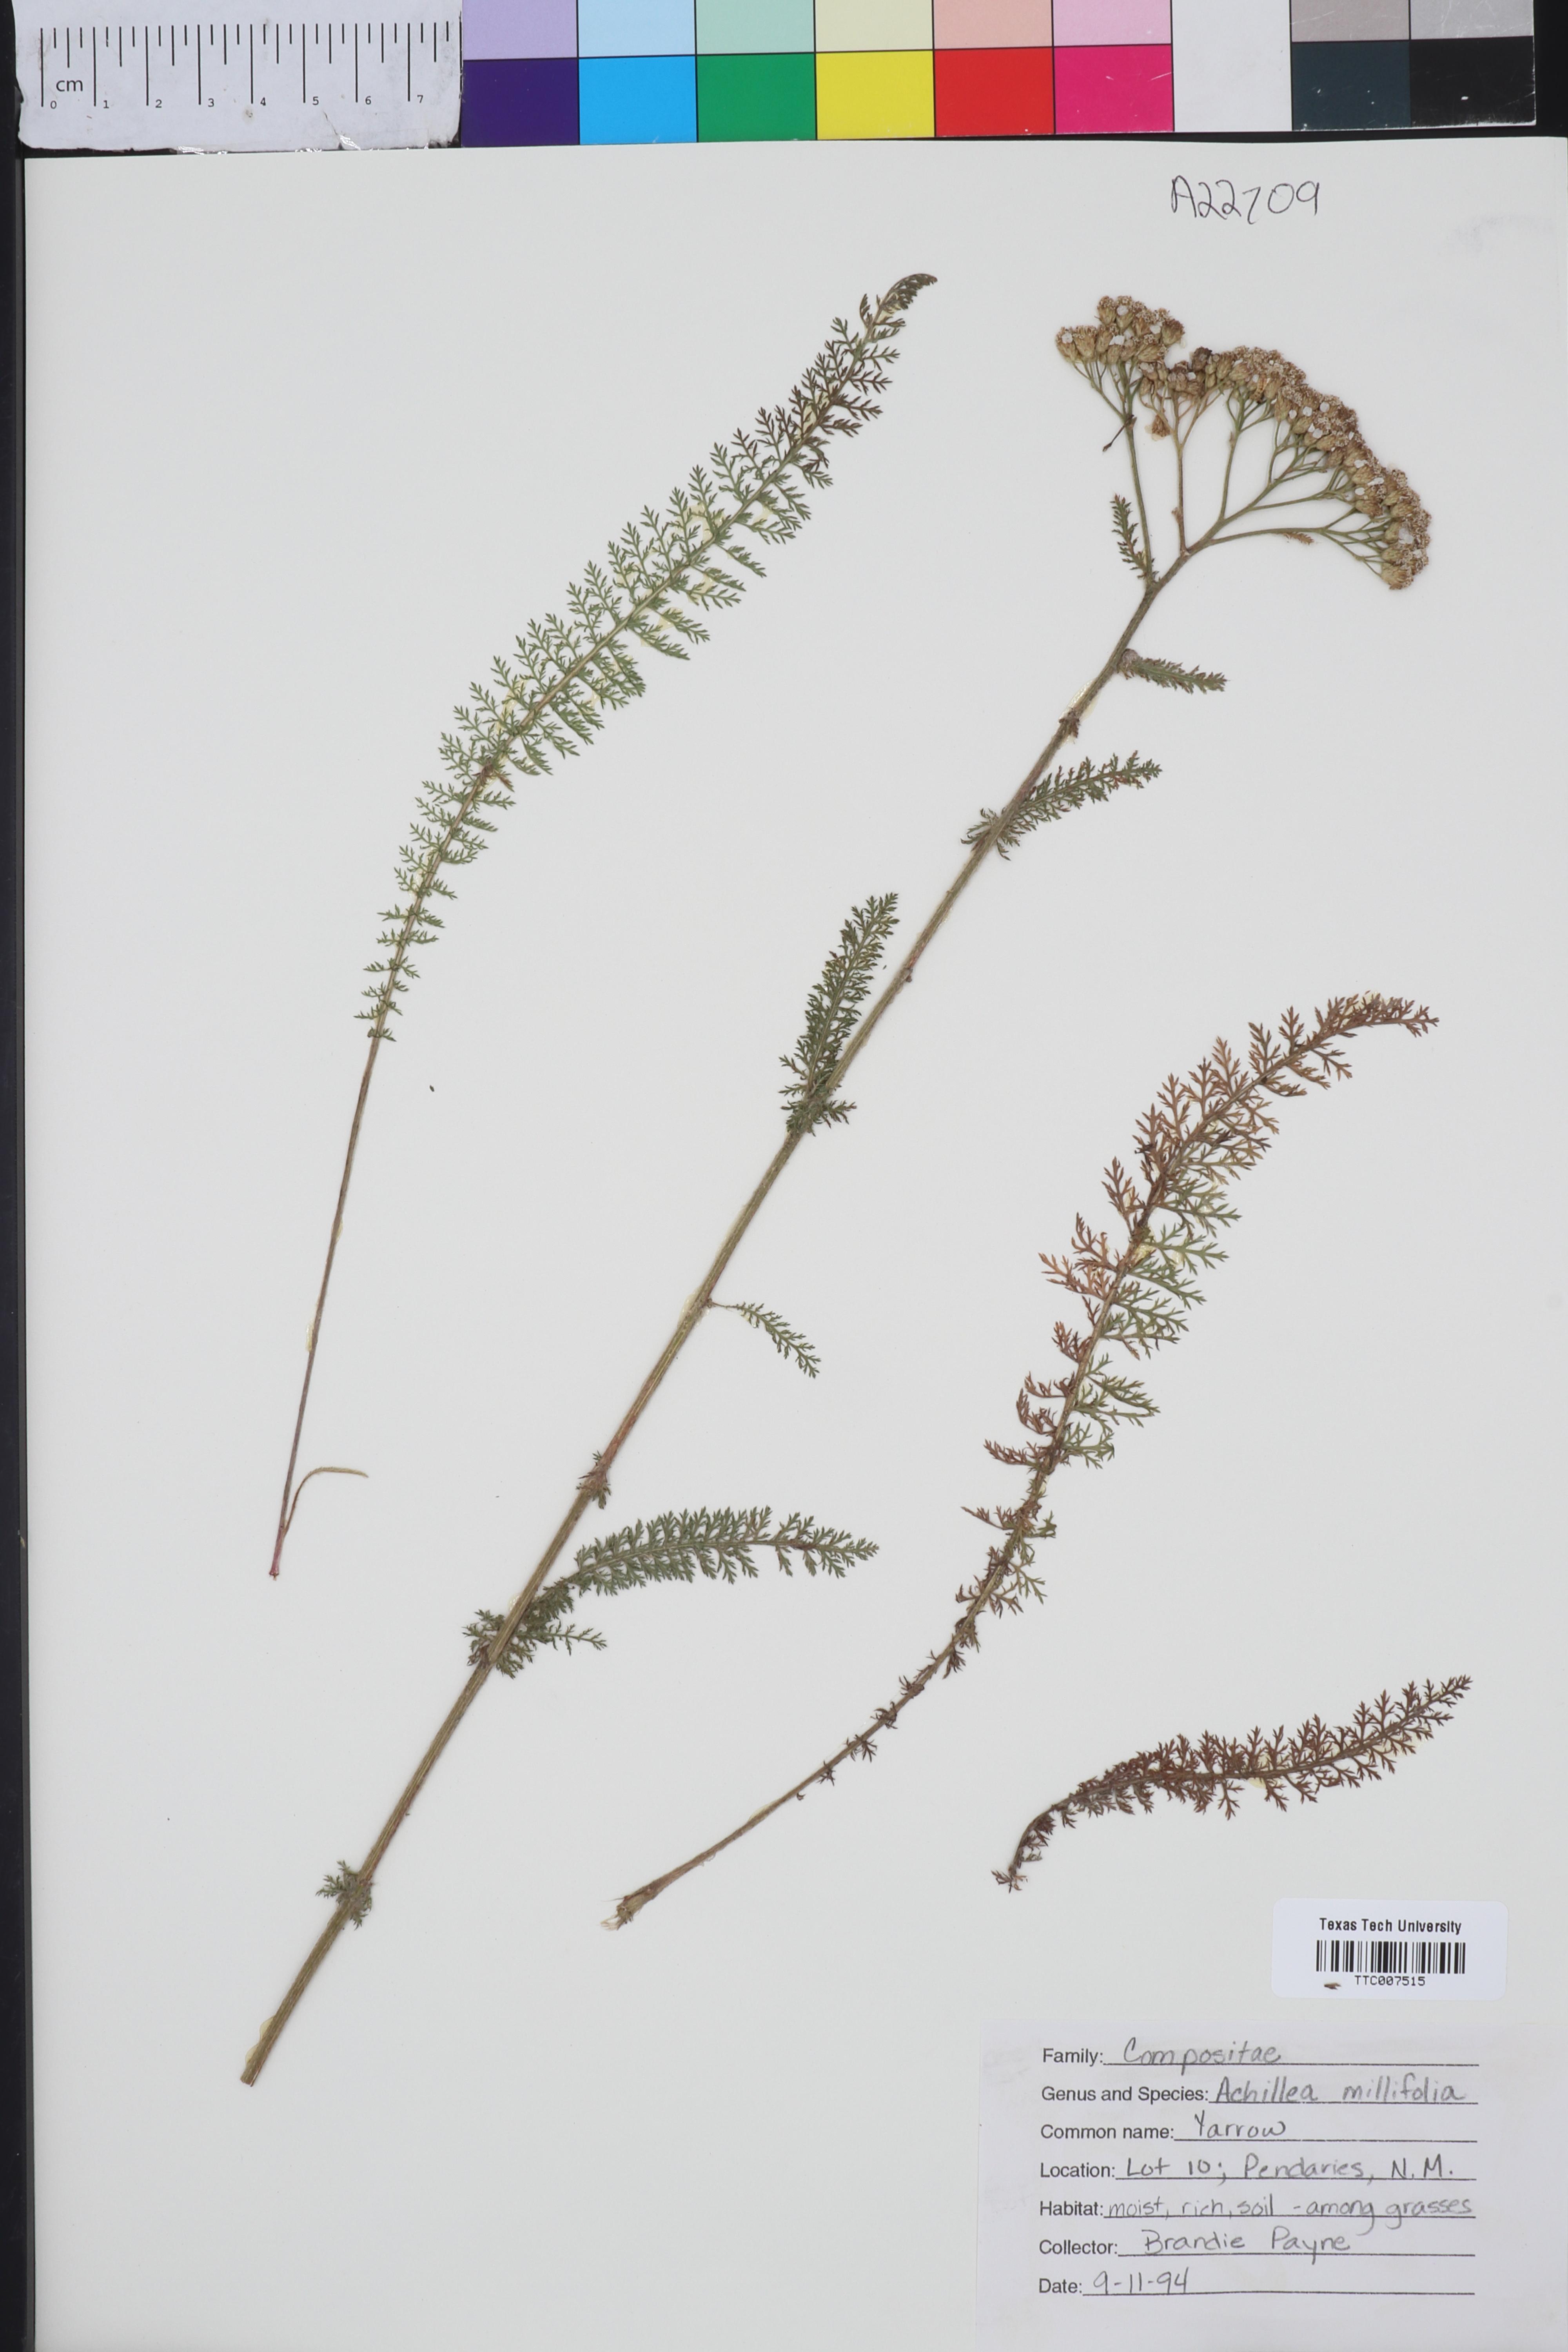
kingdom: Plantae
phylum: Tracheophyta
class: Magnoliopsida
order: Asterales
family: Asteraceae
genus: Achillea
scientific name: Achillea millefolium
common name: Yarrow
